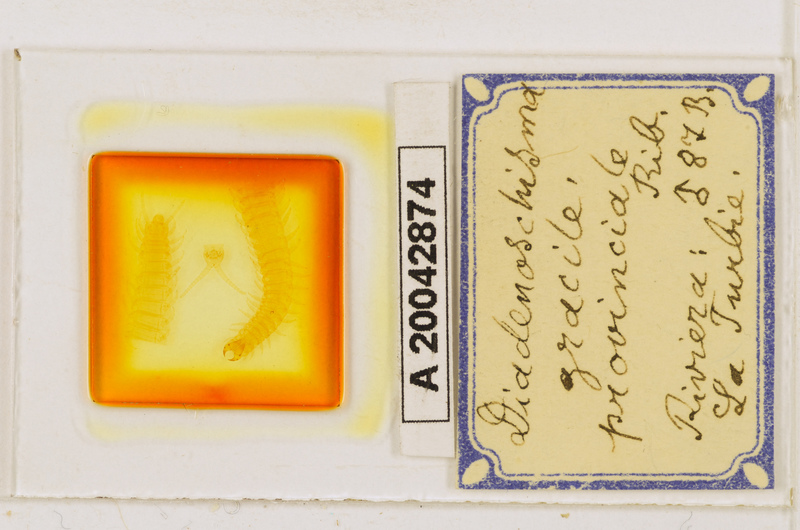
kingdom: Animalia
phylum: Arthropoda
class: Chilopoda
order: Geophilomorpha
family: Himantariidae
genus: Stigmatogaster
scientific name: Stigmatogaster
